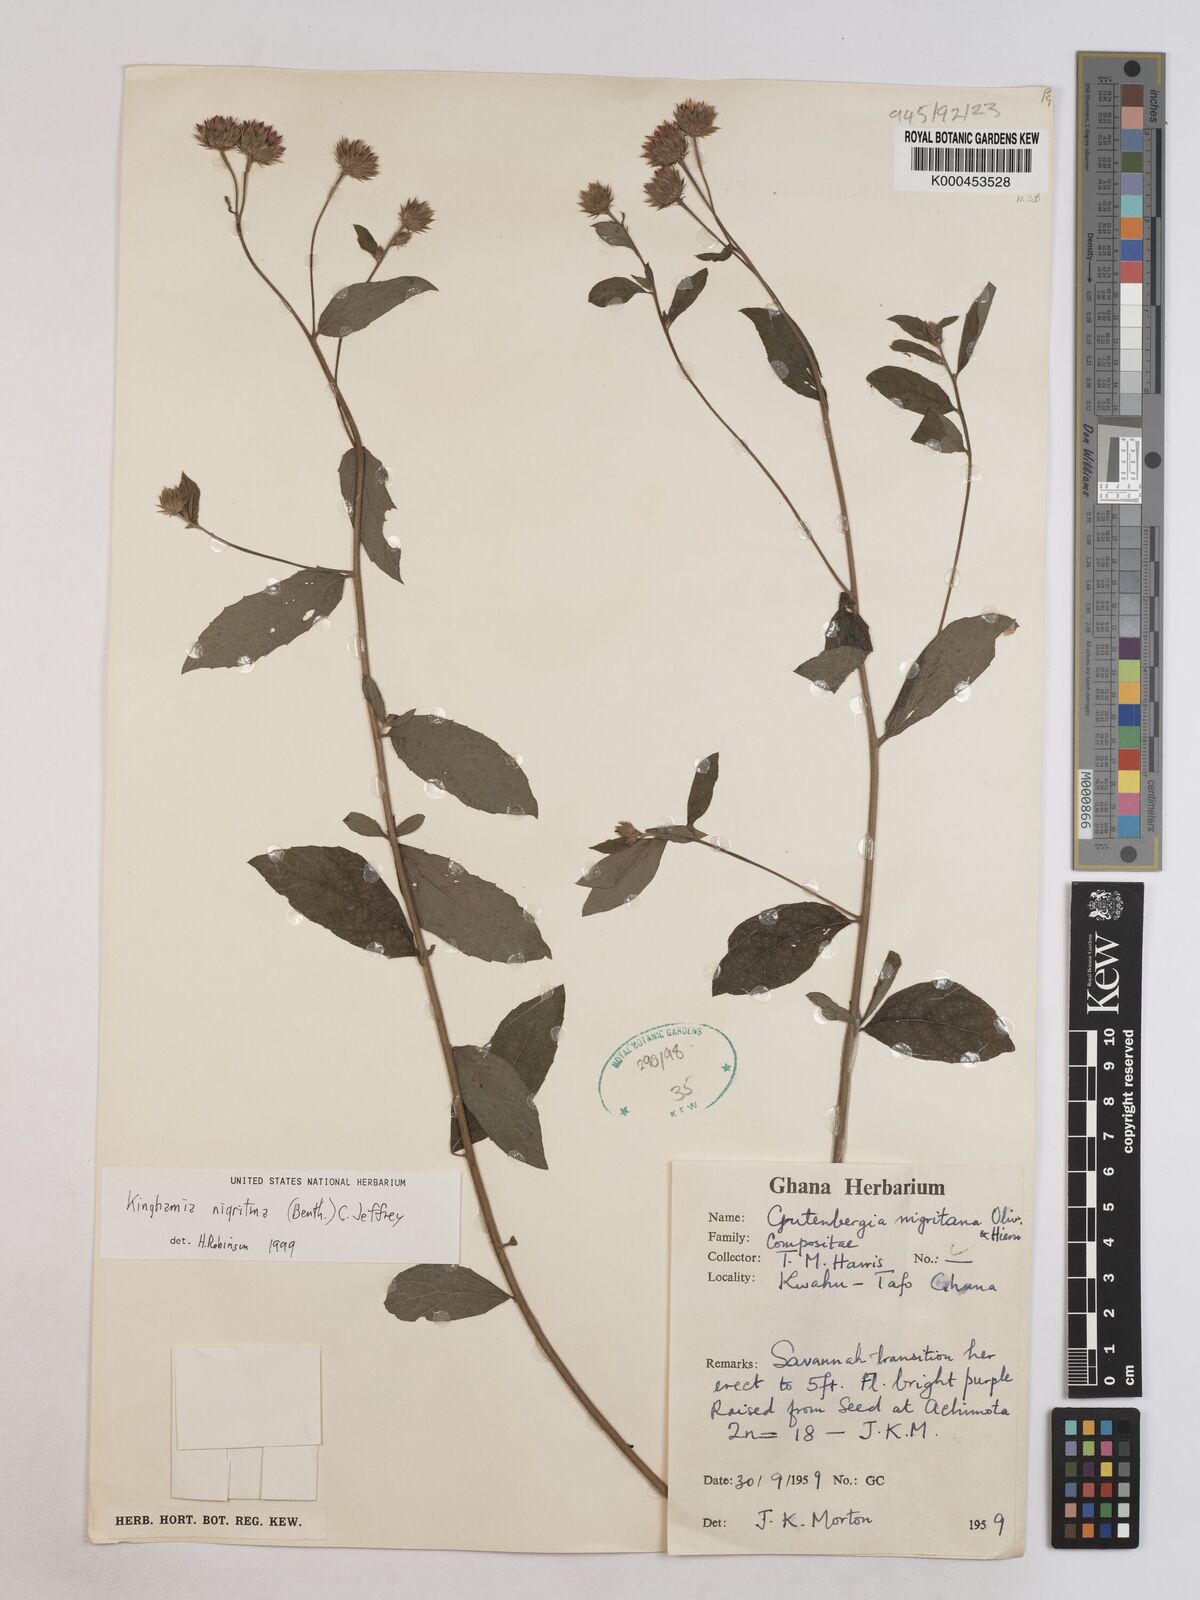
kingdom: Plantae
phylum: Tracheophyta
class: Magnoliopsida
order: Asterales
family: Asteraceae
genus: Kinghamia
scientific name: Kinghamia nigritana
